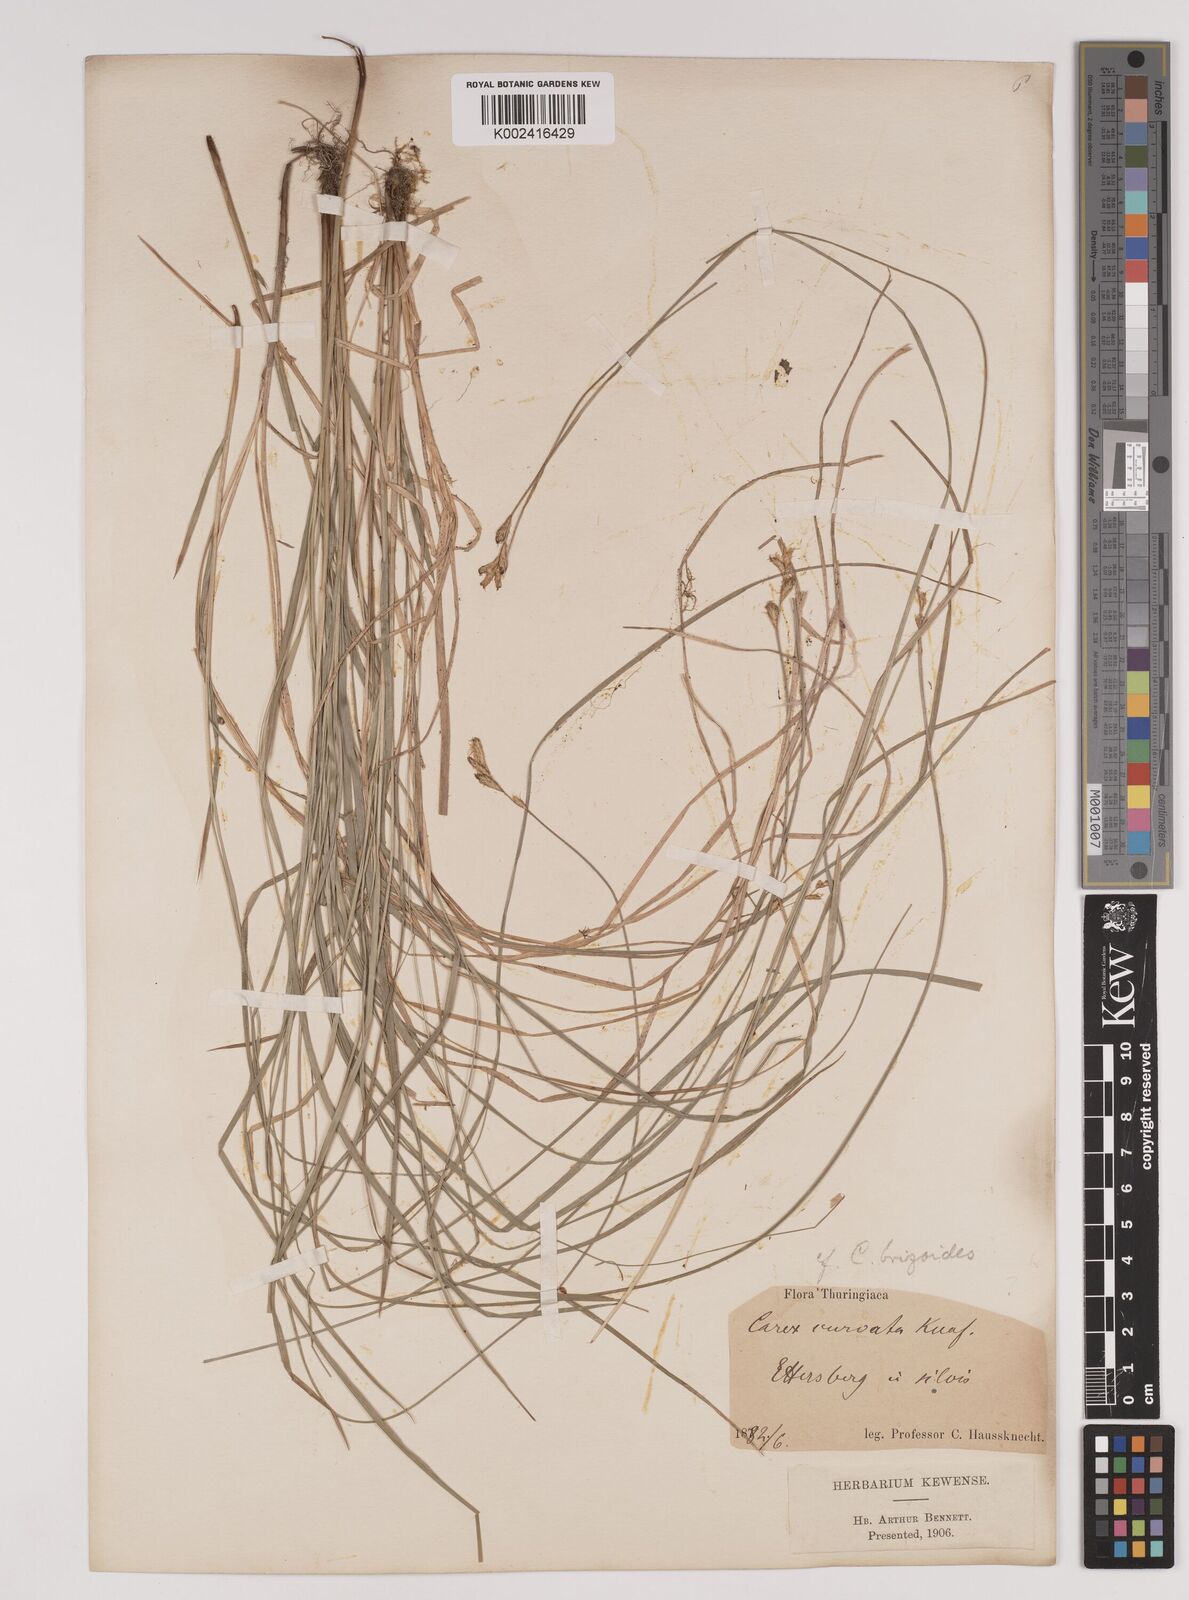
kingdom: Plantae
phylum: Tracheophyta
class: Liliopsida
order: Poales
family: Cyperaceae
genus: Carex
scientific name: Carex brizoides
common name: Quaking-grass sedge
